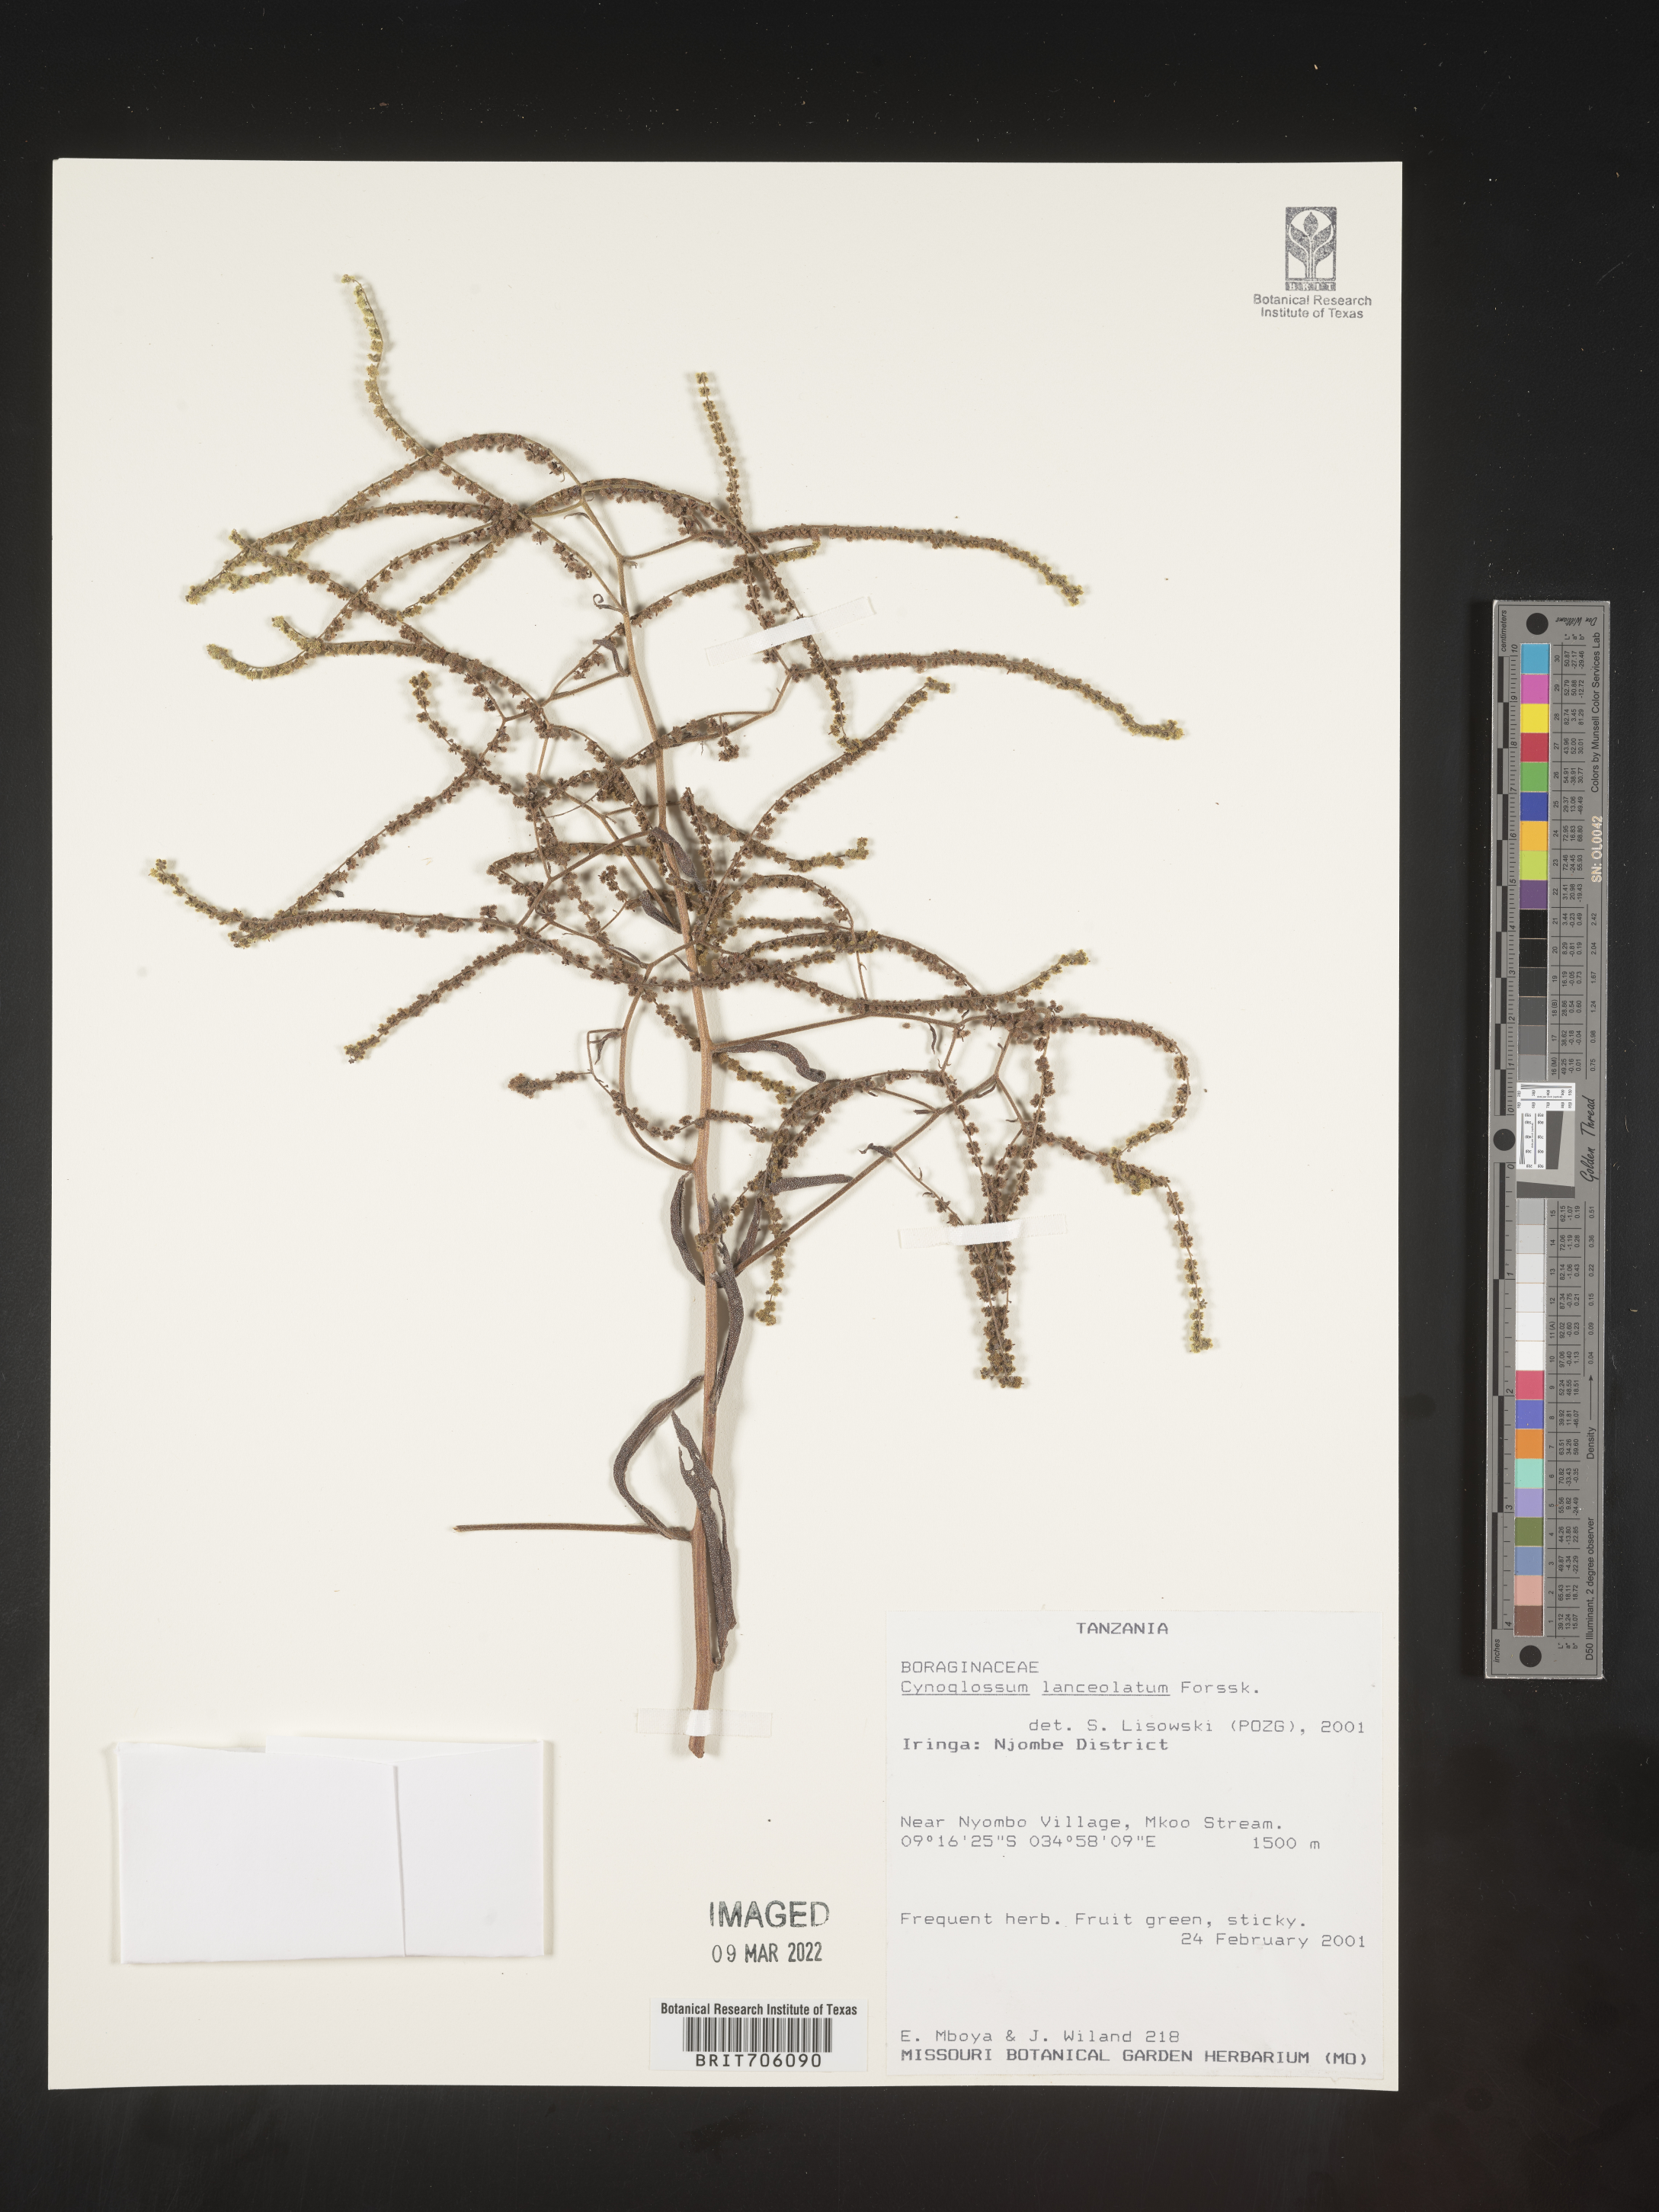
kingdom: Plantae
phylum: Tracheophyta
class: Magnoliopsida
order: Boraginales
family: Boraginaceae
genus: Cynoglossum
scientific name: Cynoglossum
